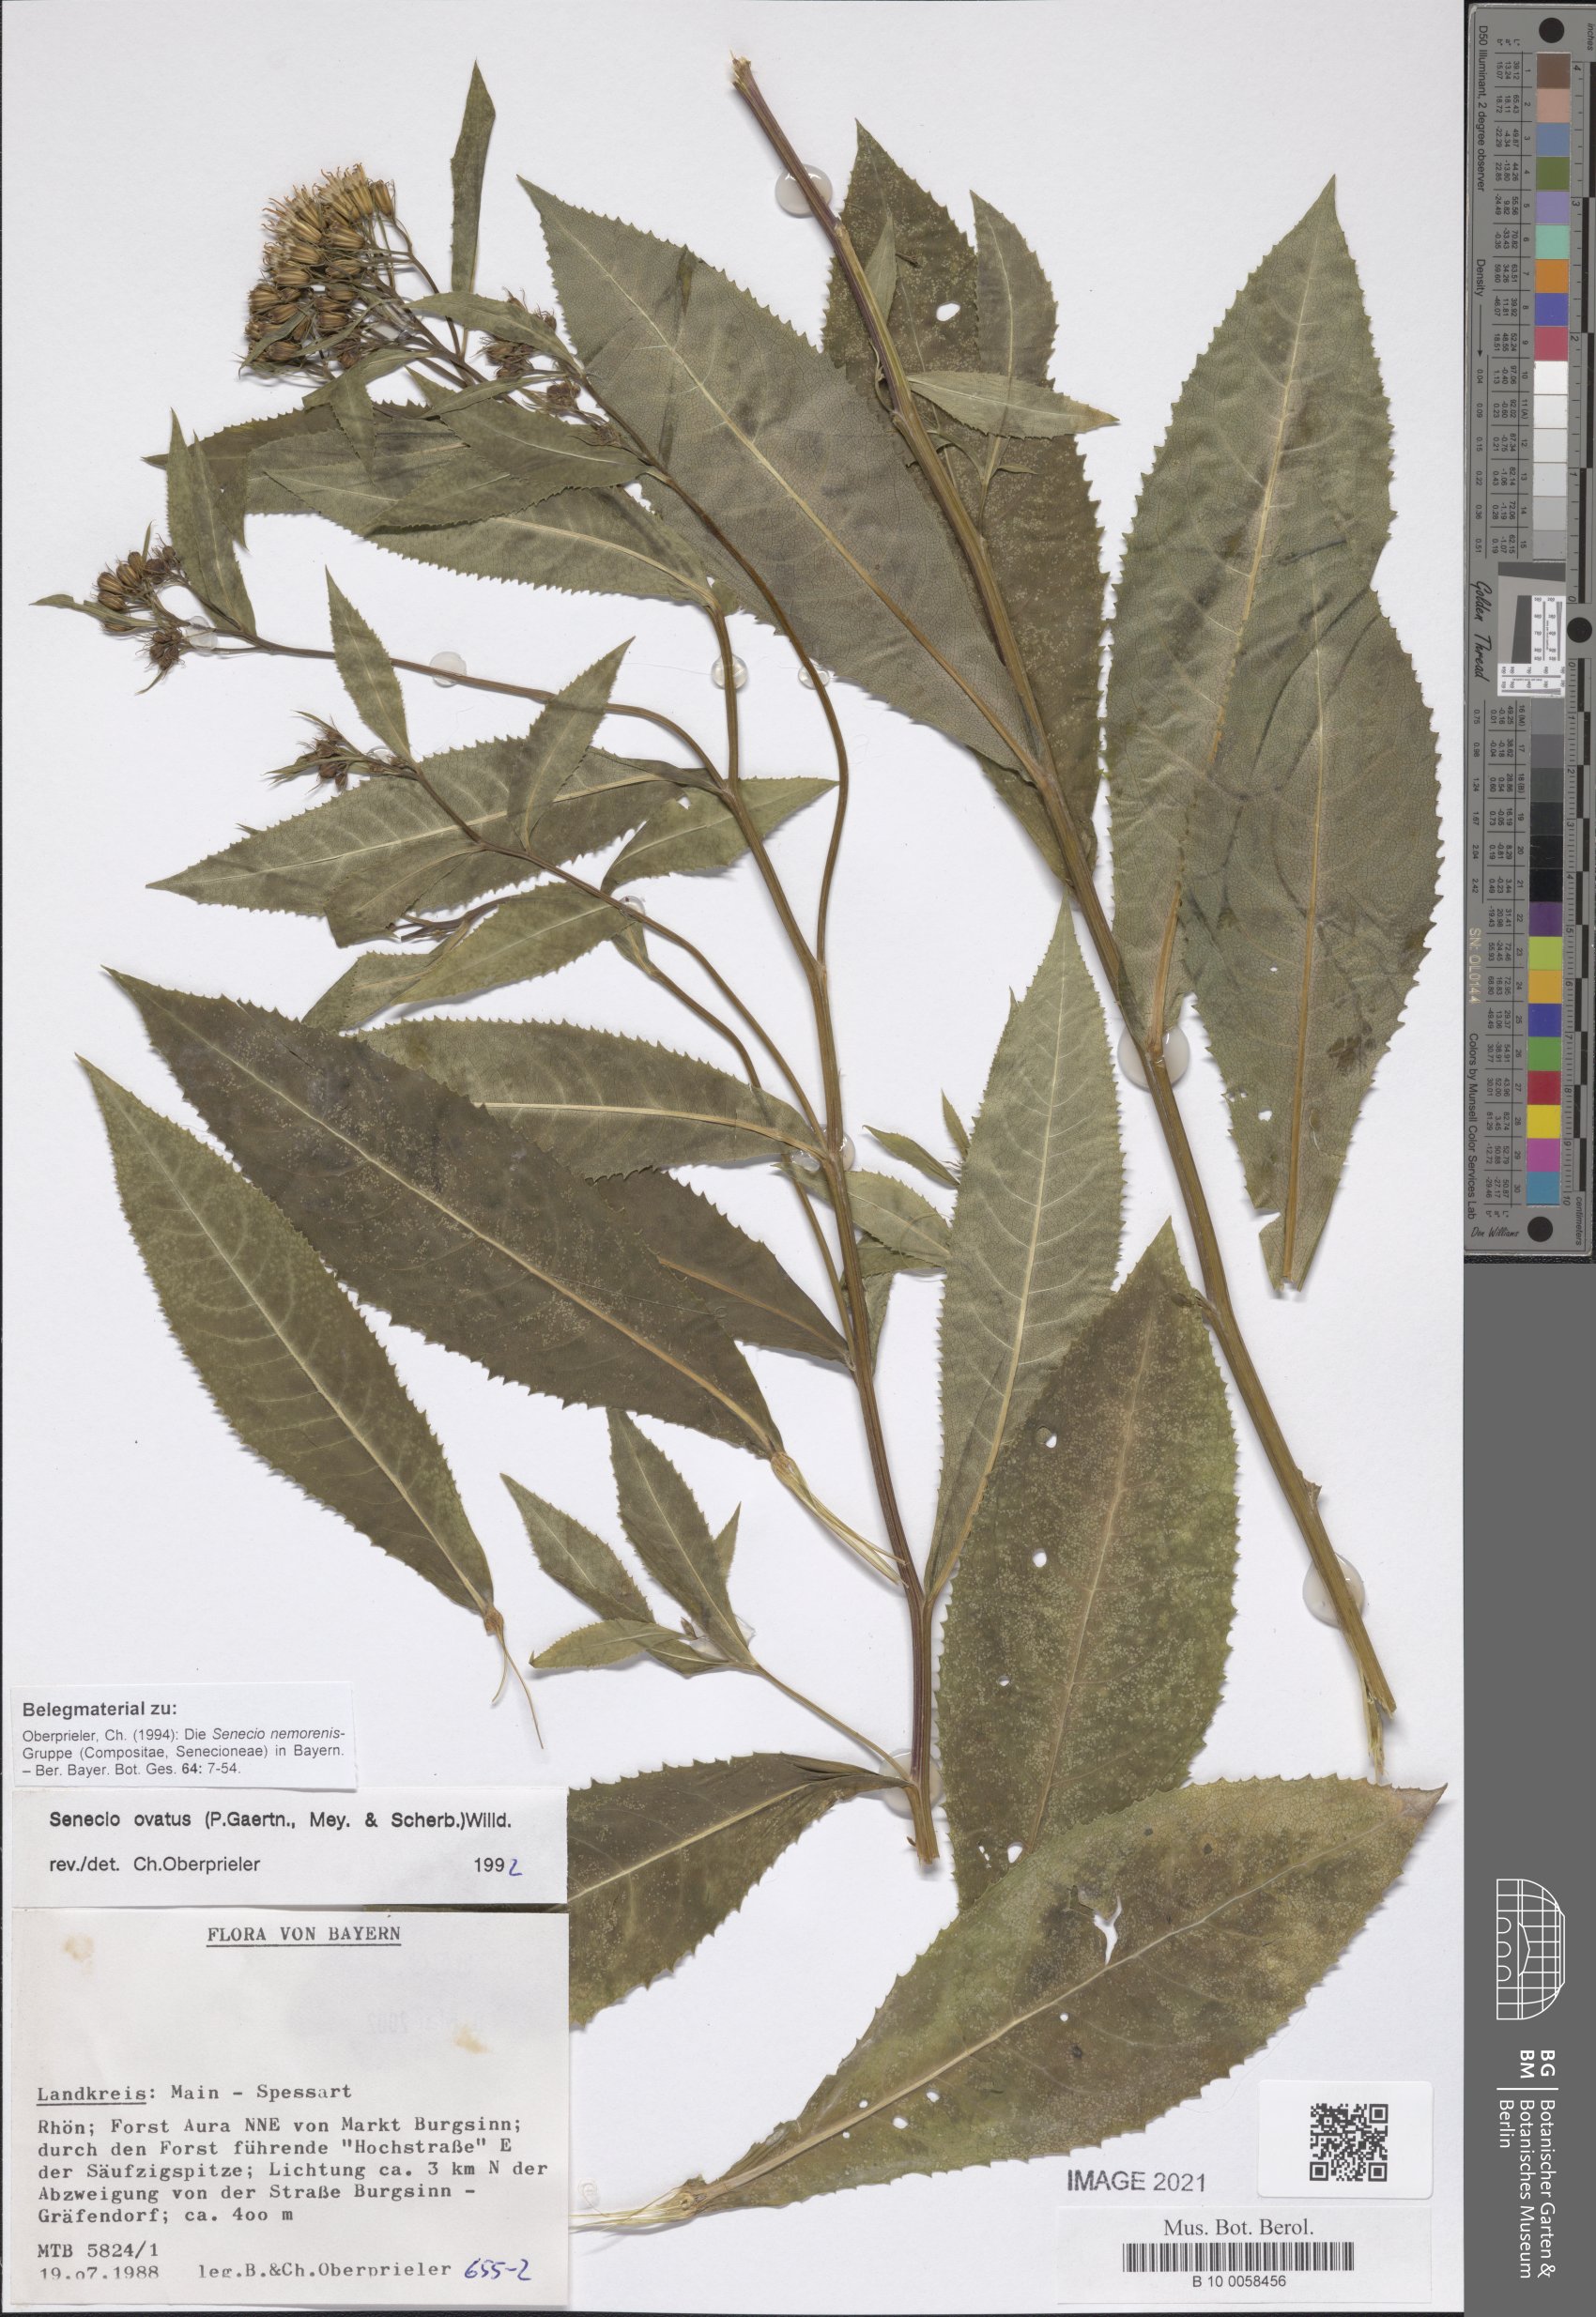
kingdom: Plantae
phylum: Tracheophyta
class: Magnoliopsida
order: Asterales
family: Asteraceae
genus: Senecio
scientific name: Senecio ovatus
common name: Wood ragwort
